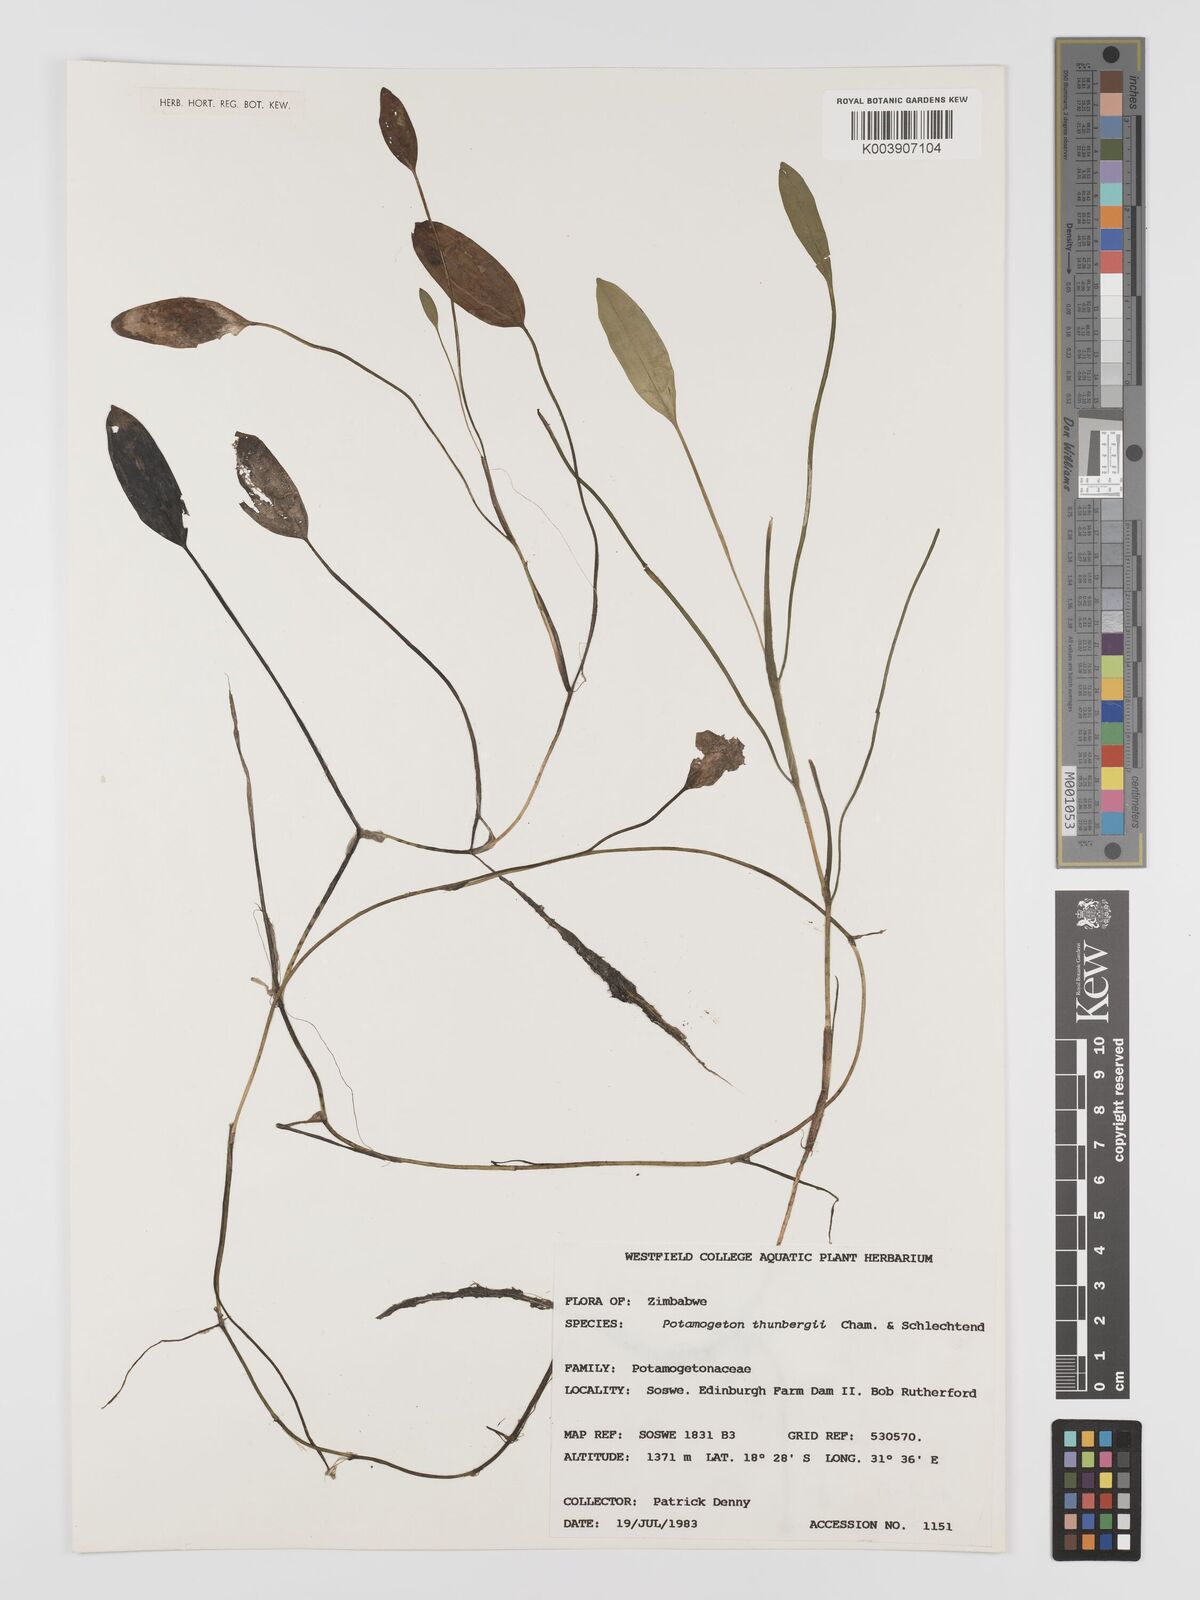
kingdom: Plantae
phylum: Tracheophyta
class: Liliopsida
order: Alismatales
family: Potamogetonaceae
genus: Potamogeton
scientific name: Potamogeton nodosus
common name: Loddon pondweed
